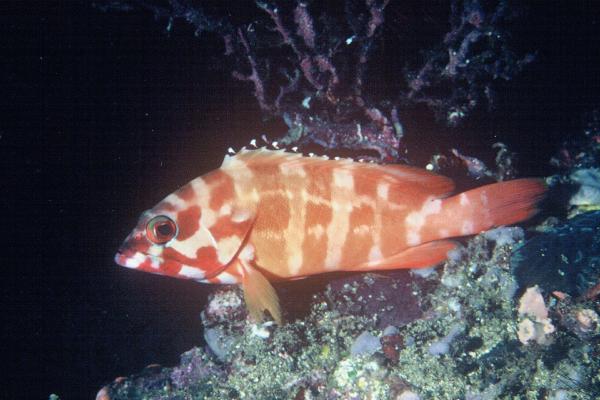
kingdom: Animalia
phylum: Chordata
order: Perciformes
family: Serranidae
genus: Epinephelus
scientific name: Epinephelus fasciatus
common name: Blacktip grouper
